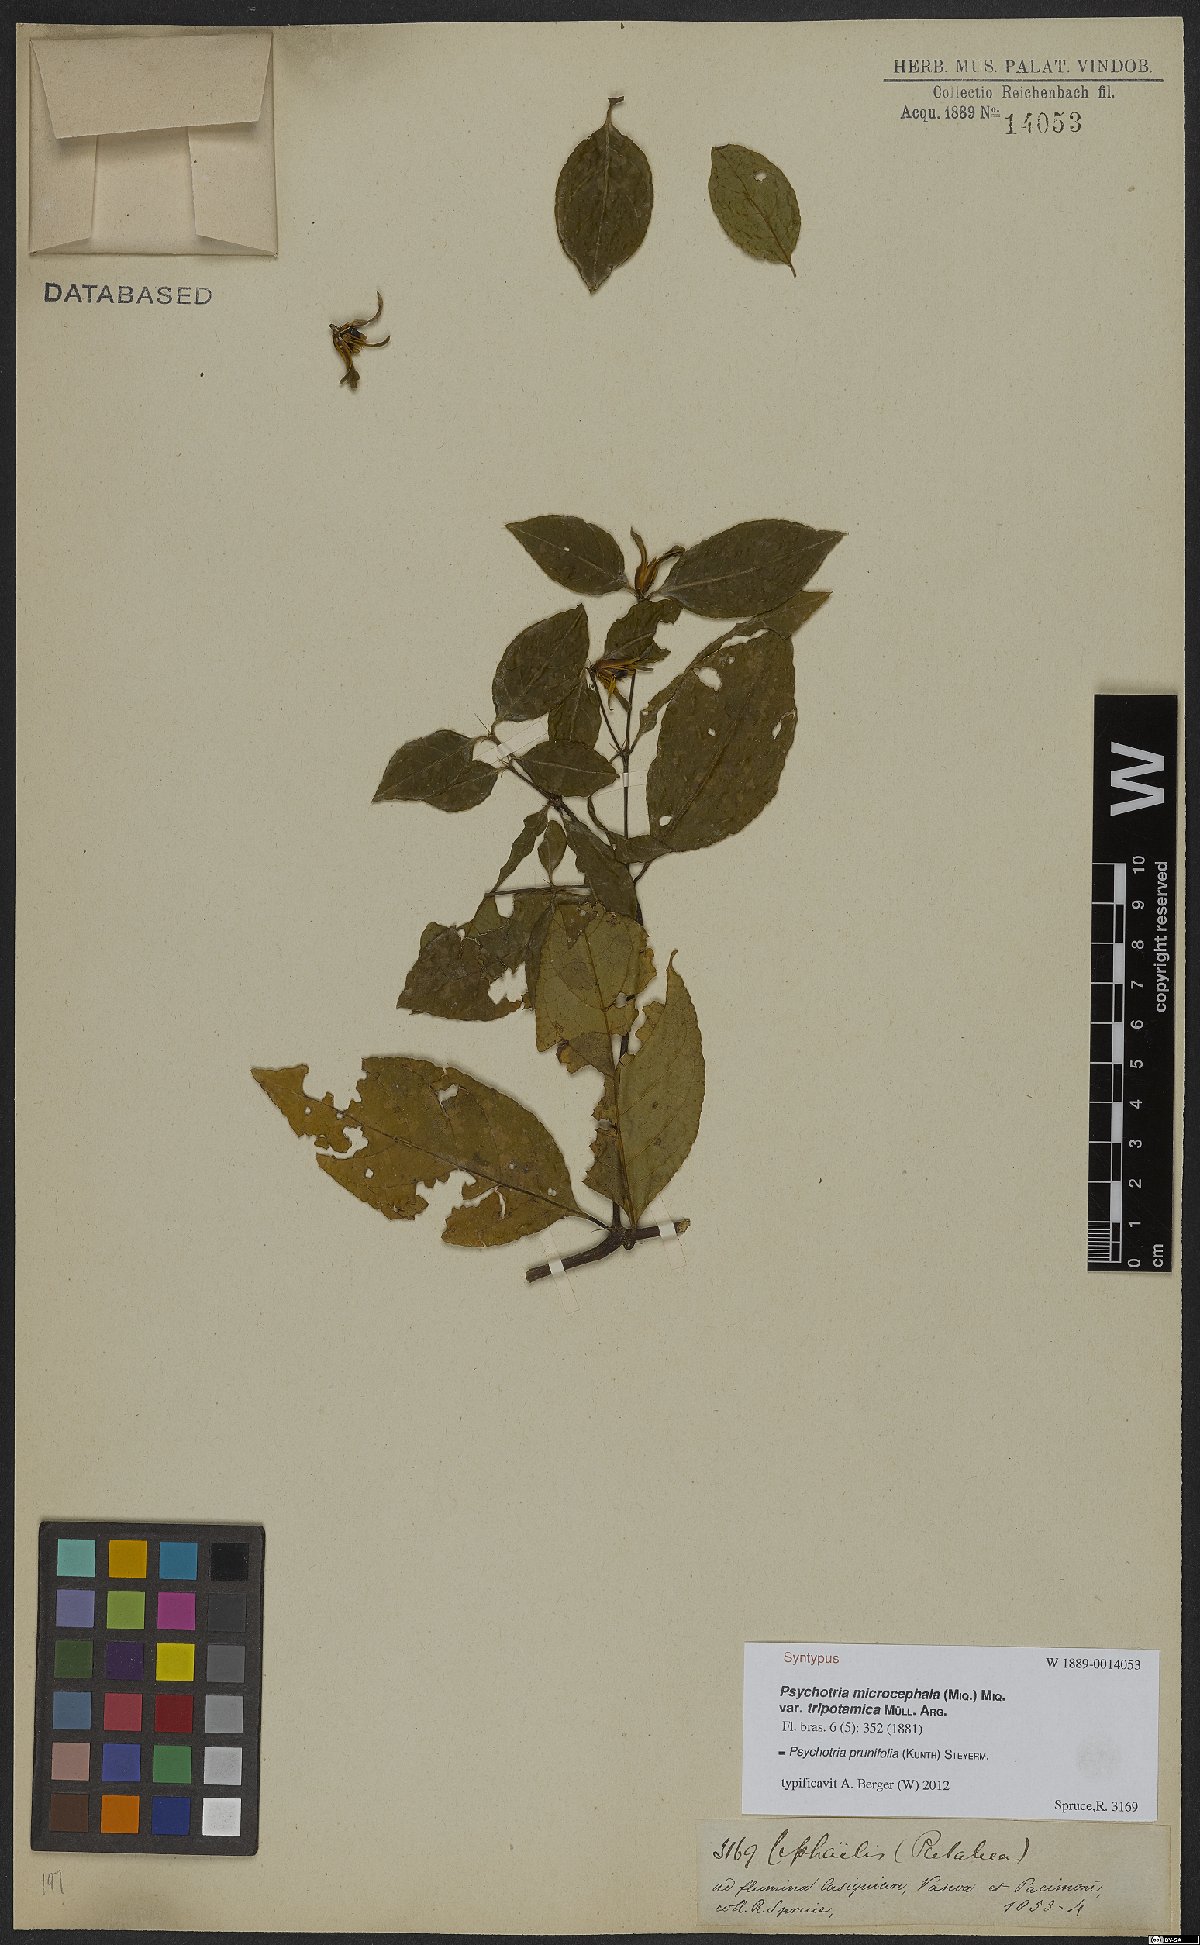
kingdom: Plantae
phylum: Tracheophyta
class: Magnoliopsida
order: Gentianales
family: Rubiaceae
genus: Palicourea
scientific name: Palicourea prunifolia
